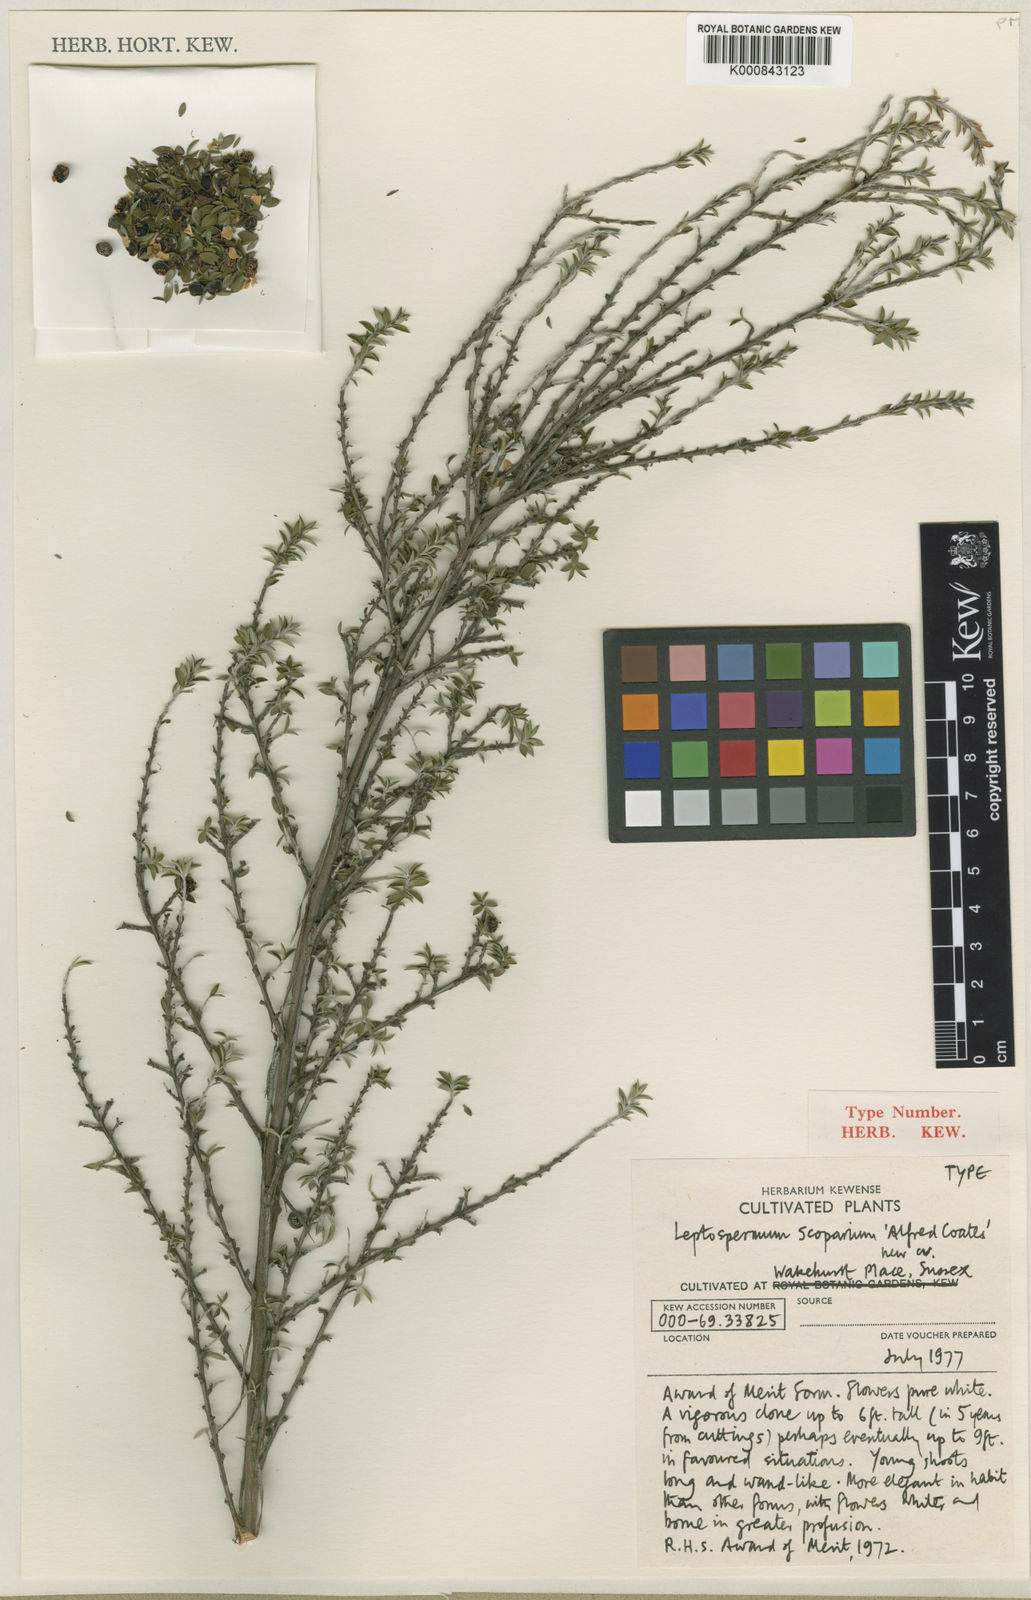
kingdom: Plantae
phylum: Tracheophyta
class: Magnoliopsida
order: Myrtales
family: Myrtaceae
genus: Leptospermum
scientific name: Leptospermum scoparium
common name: Broom tea-tree
